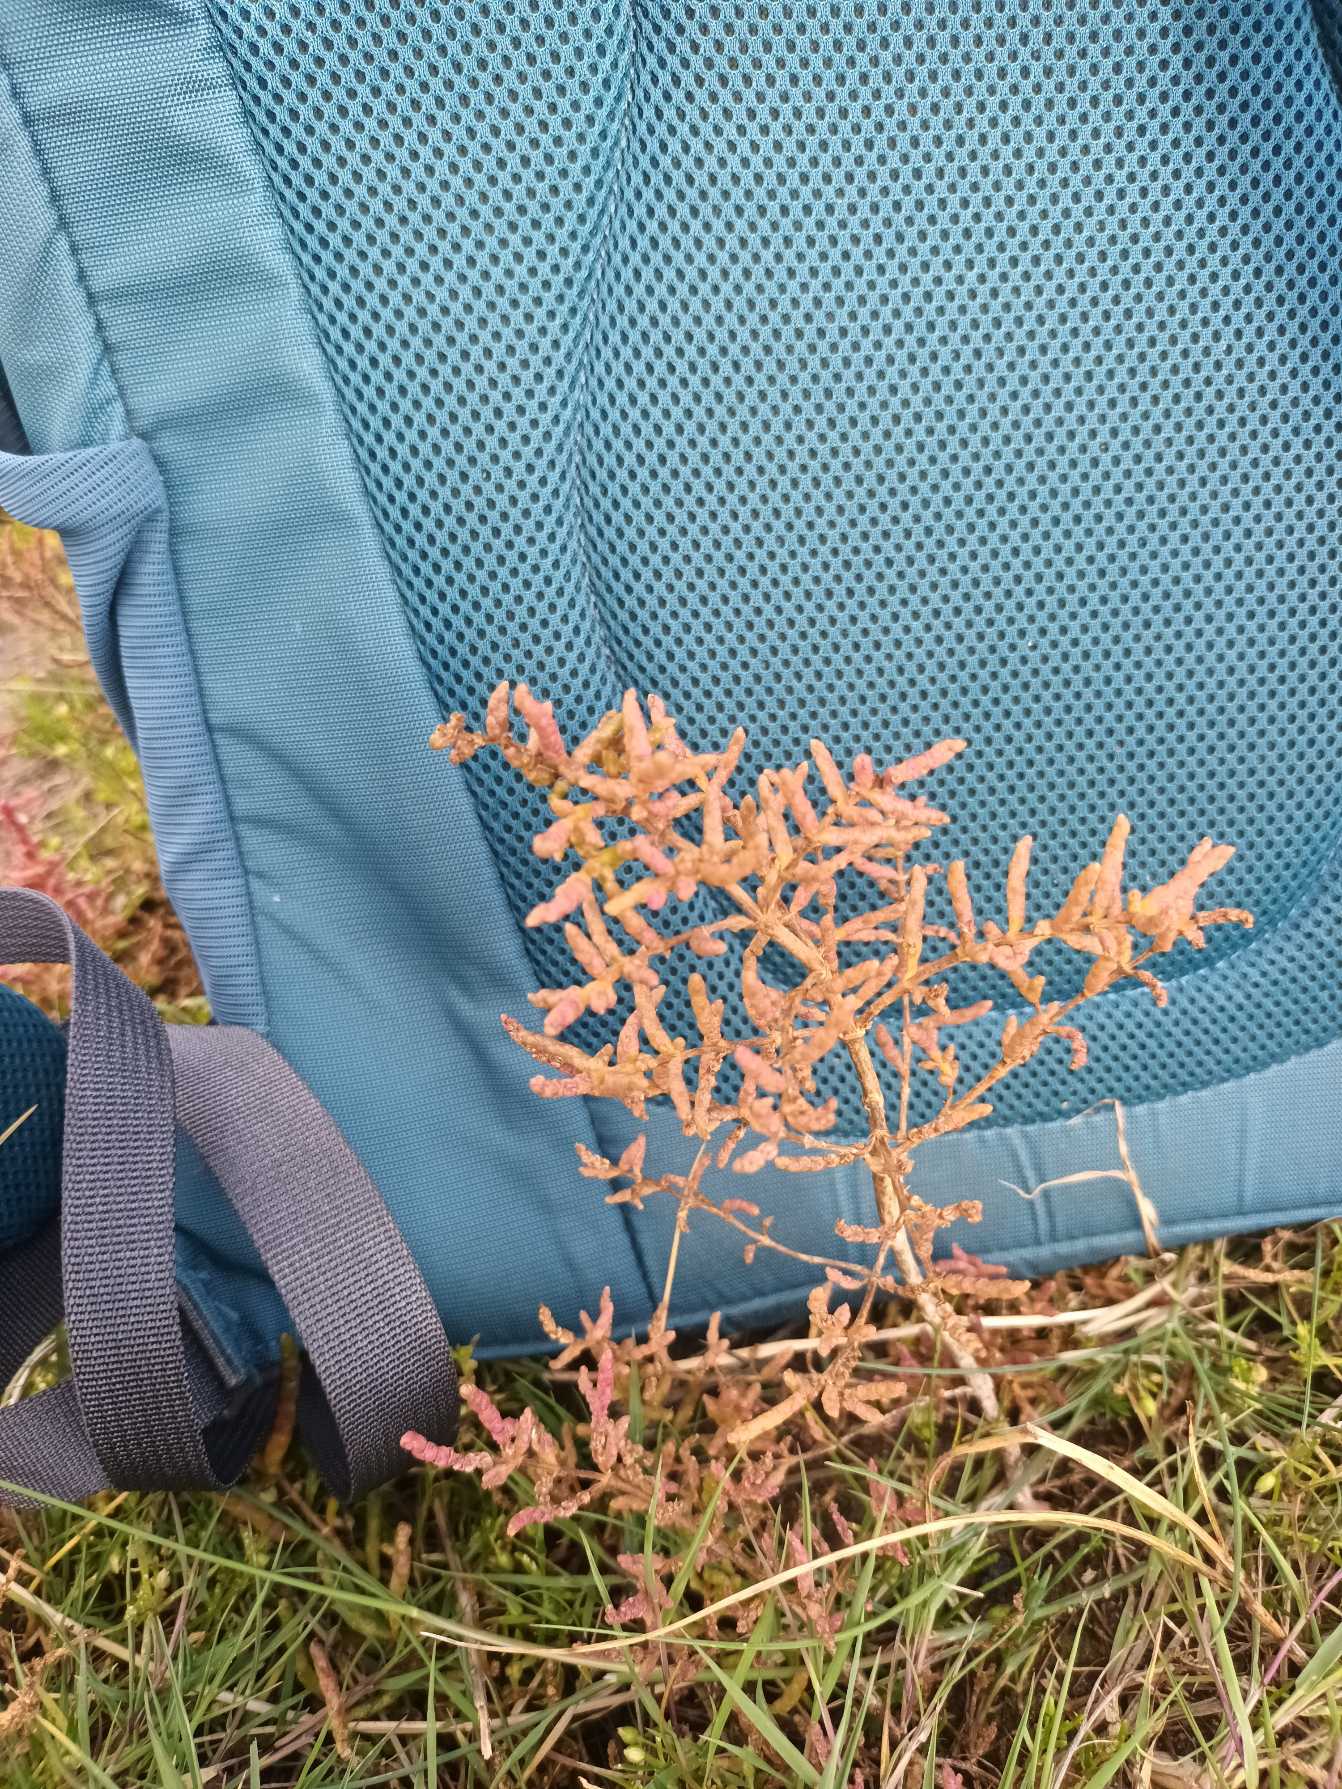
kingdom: Plantae
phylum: Tracheophyta
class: Magnoliopsida
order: Caryophyllales
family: Amaranthaceae
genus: Salicornia
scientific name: Salicornia europaea
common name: Almindelig salturt
